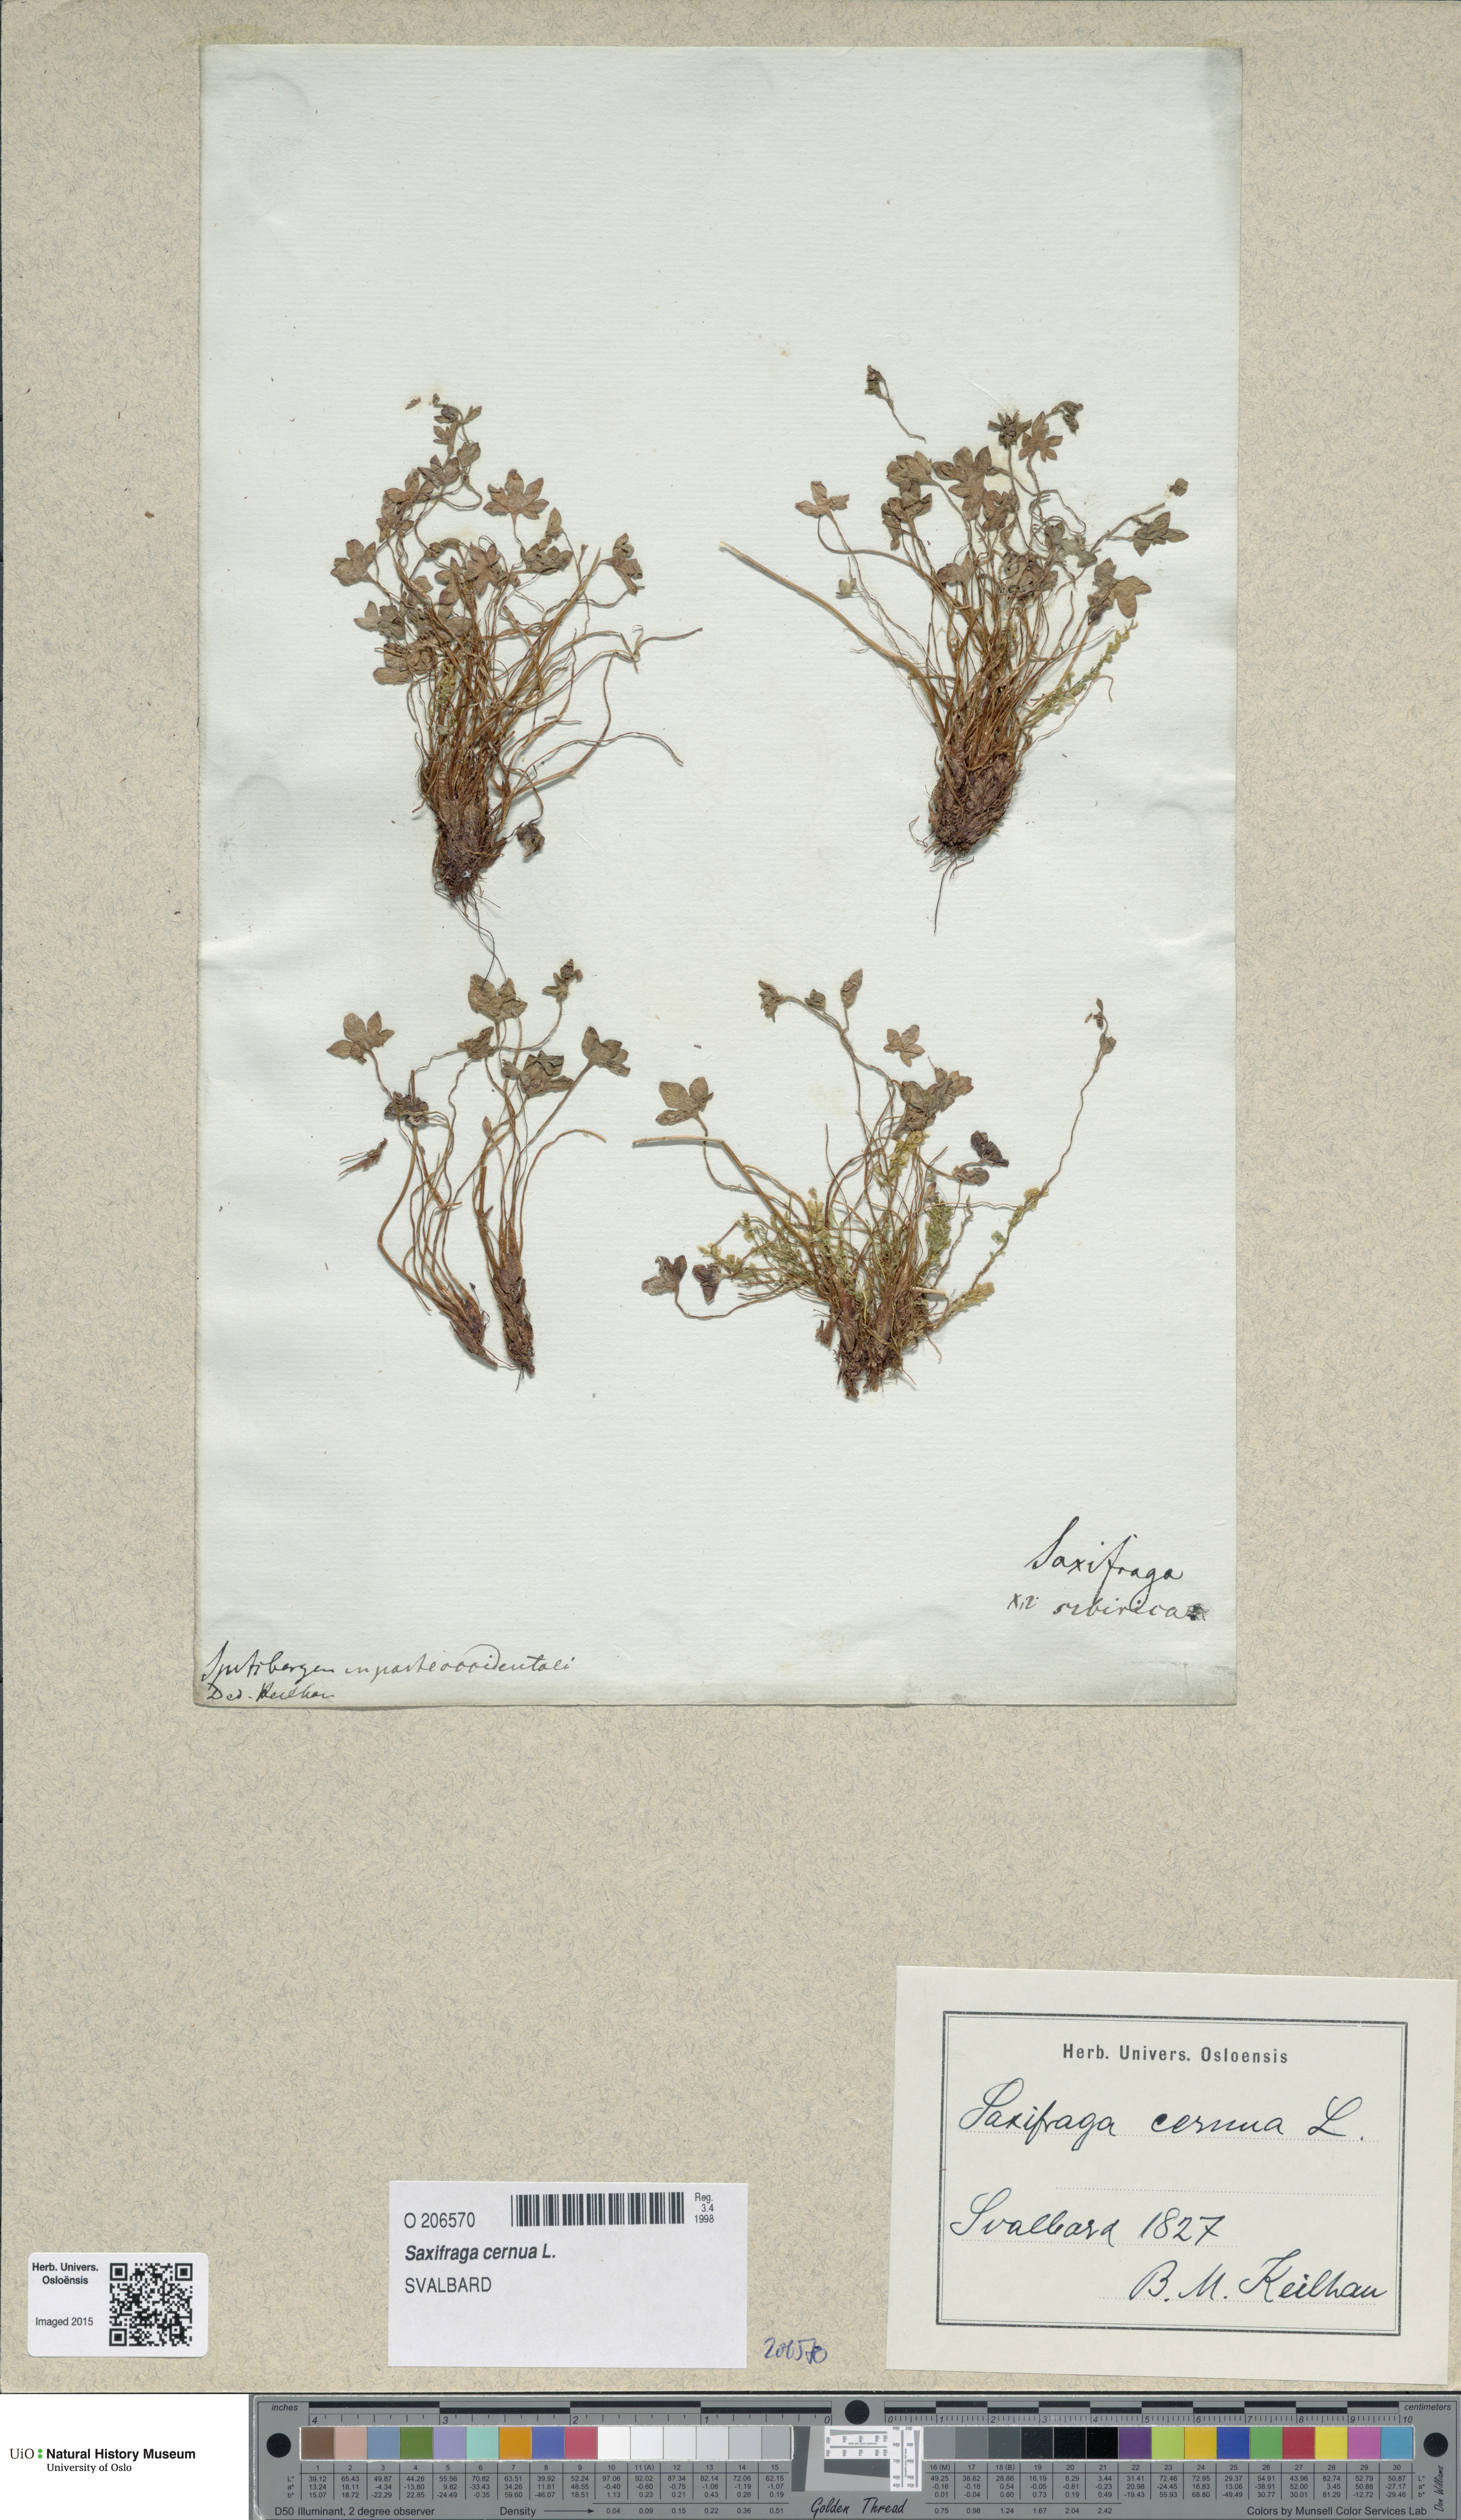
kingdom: Plantae
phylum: Tracheophyta
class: Magnoliopsida
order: Saxifragales
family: Saxifragaceae
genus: Saxifraga
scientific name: Saxifraga cernua
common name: Drooping saxifrage
